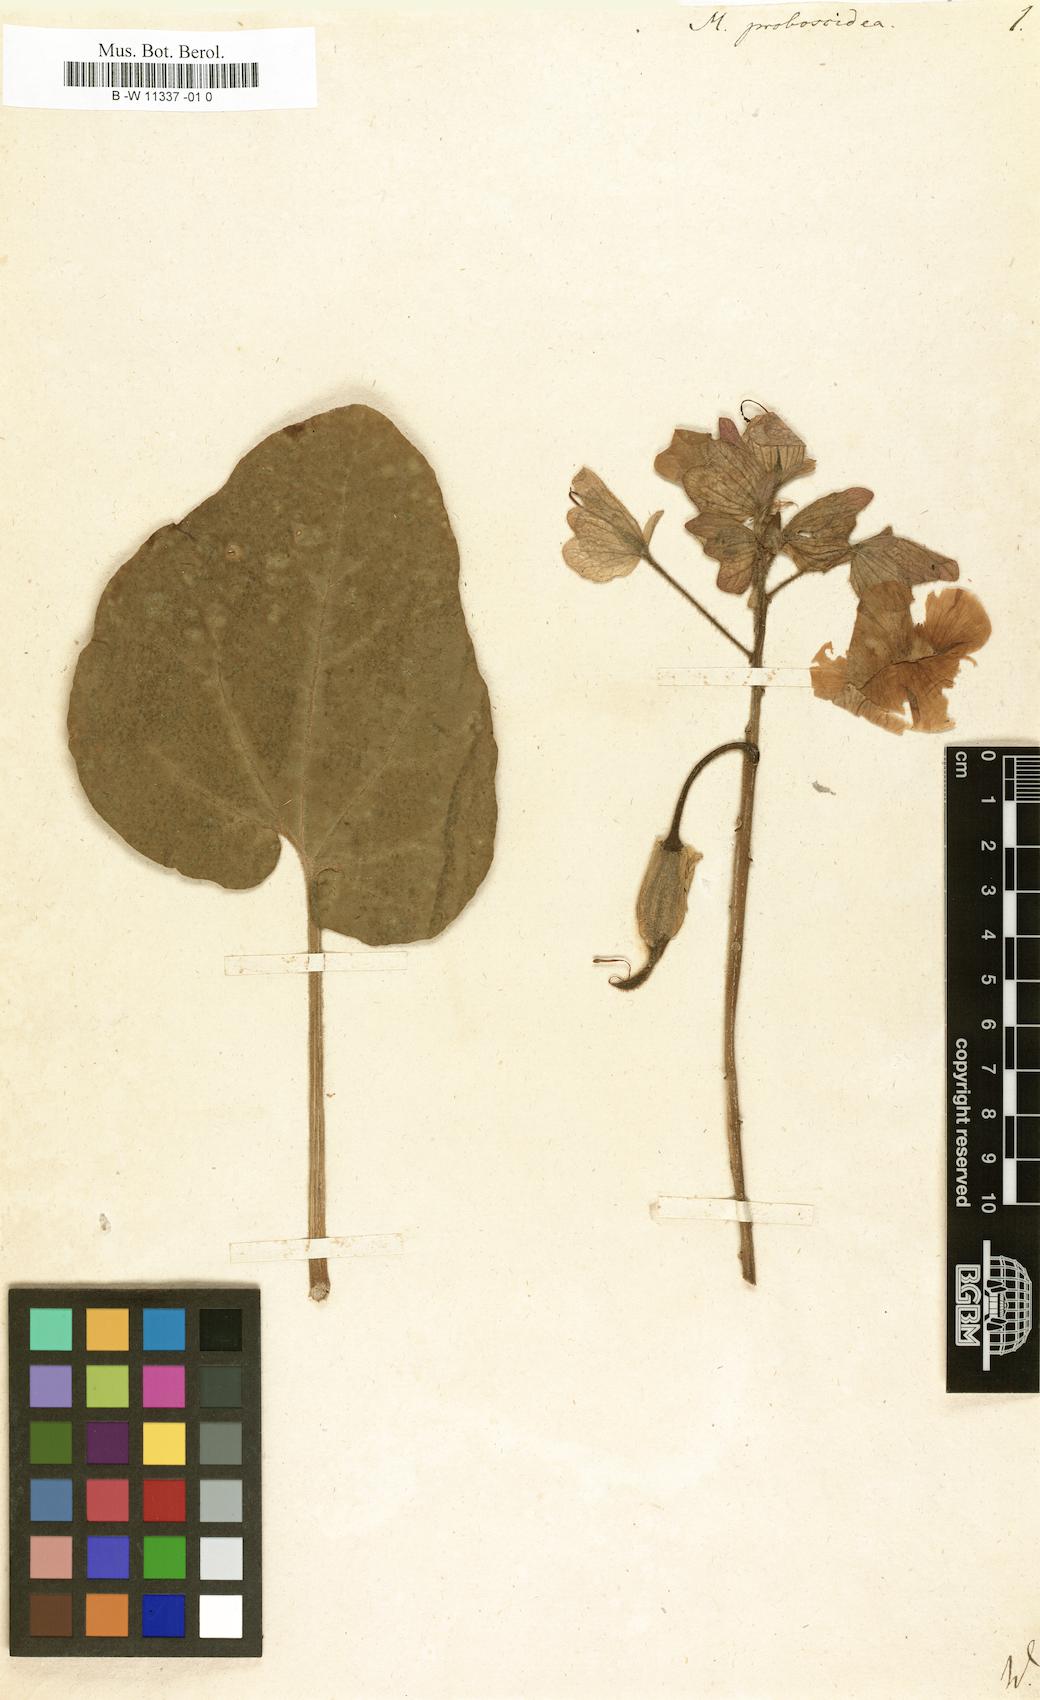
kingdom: Plantae
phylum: Tracheophyta
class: Magnoliopsida
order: Lamiales
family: Martyniaceae
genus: Proboscidea
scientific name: Proboscidea louisianica
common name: Elephant tusks
